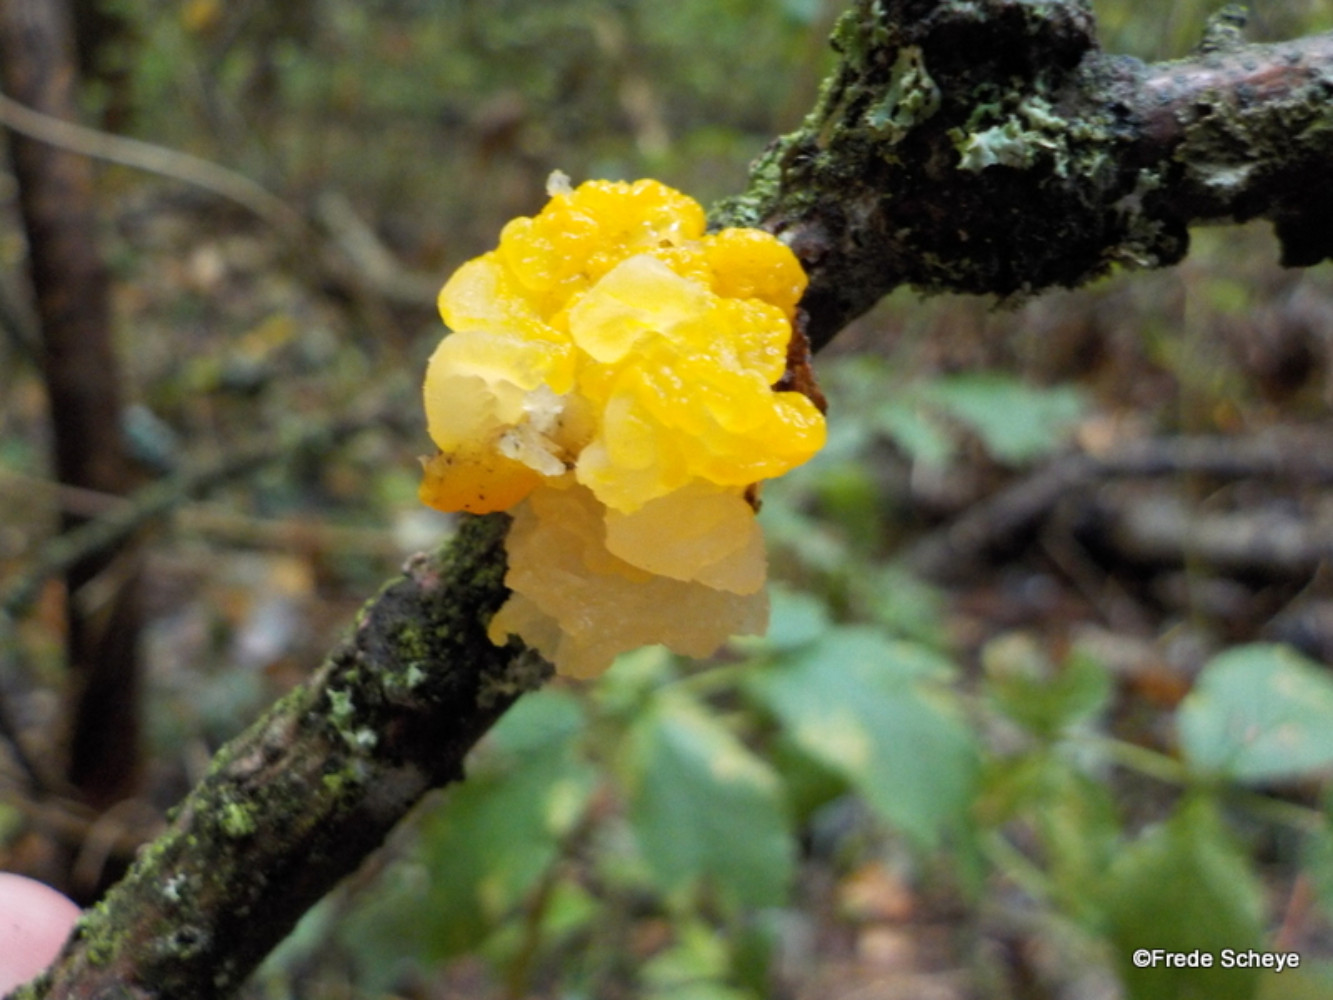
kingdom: Fungi
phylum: Basidiomycota
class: Tremellomycetes
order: Tremellales
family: Tremellaceae
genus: Tremella
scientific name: Tremella mesenterica
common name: gul bævresvamp
